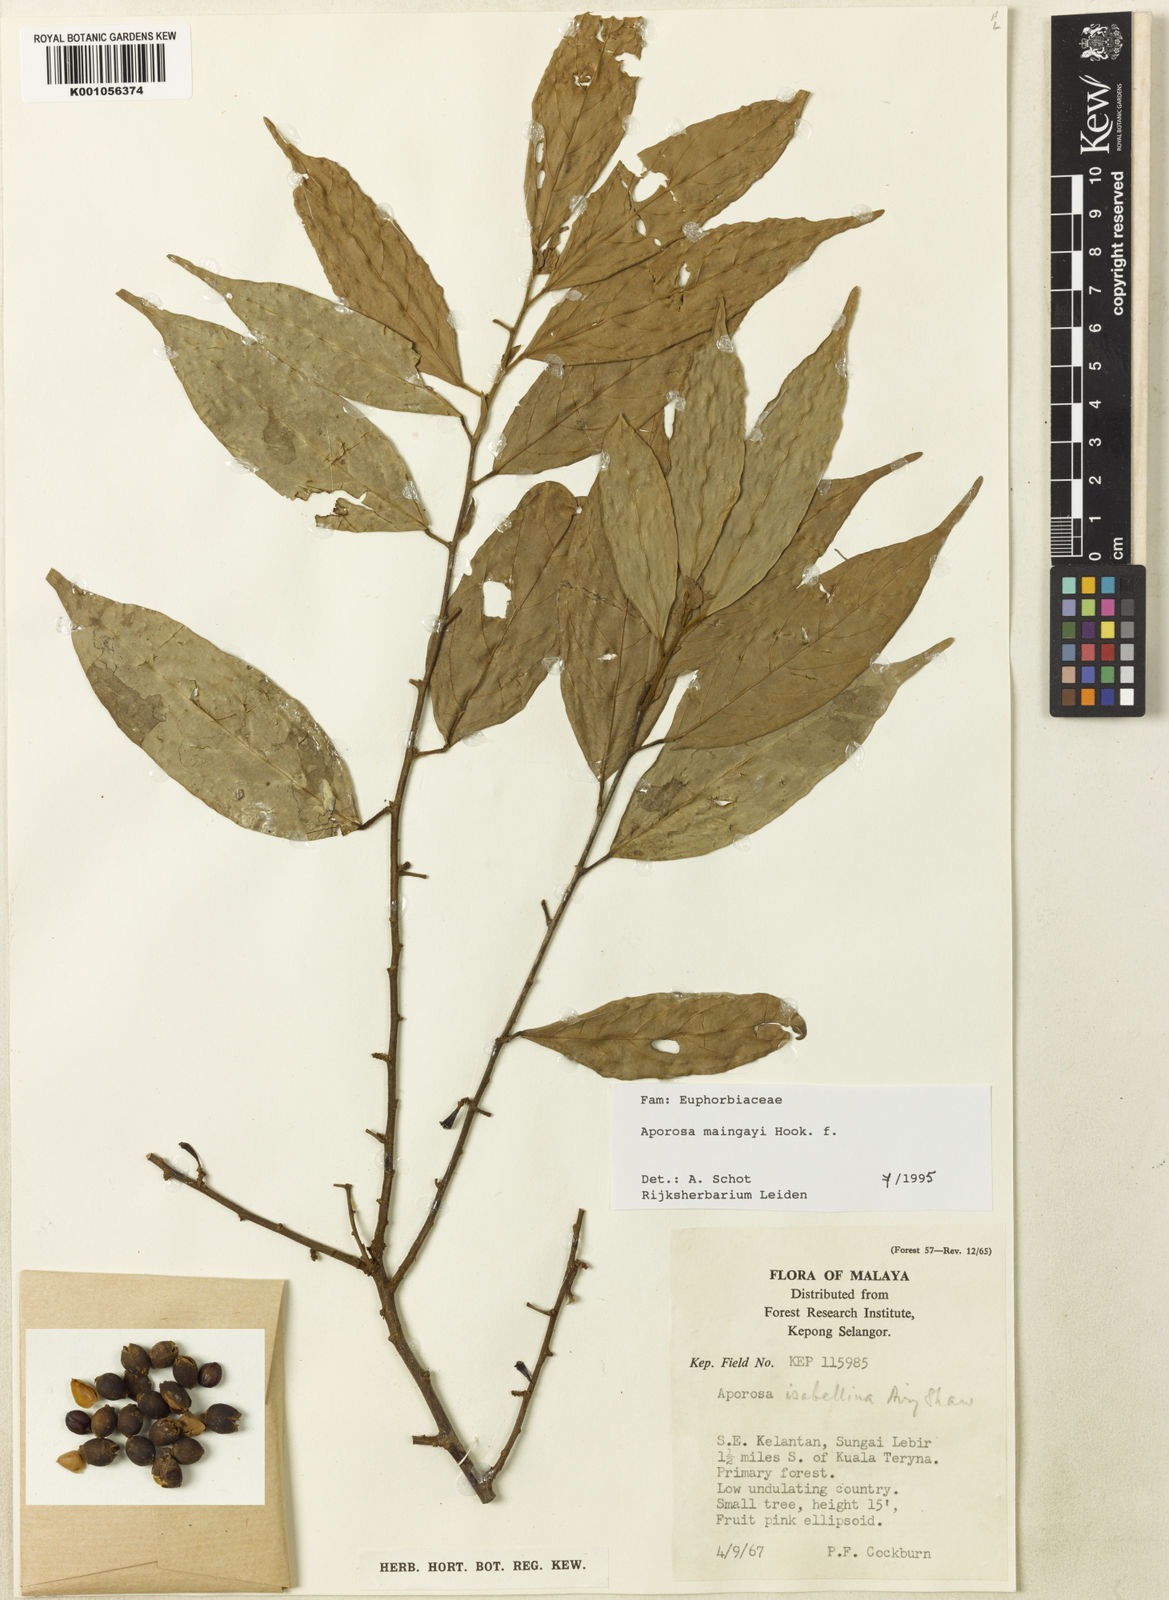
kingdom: Plantae
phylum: Tracheophyta
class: Magnoliopsida
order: Malpighiales
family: Phyllanthaceae
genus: Aporosa
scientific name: Aporosa maingayi
